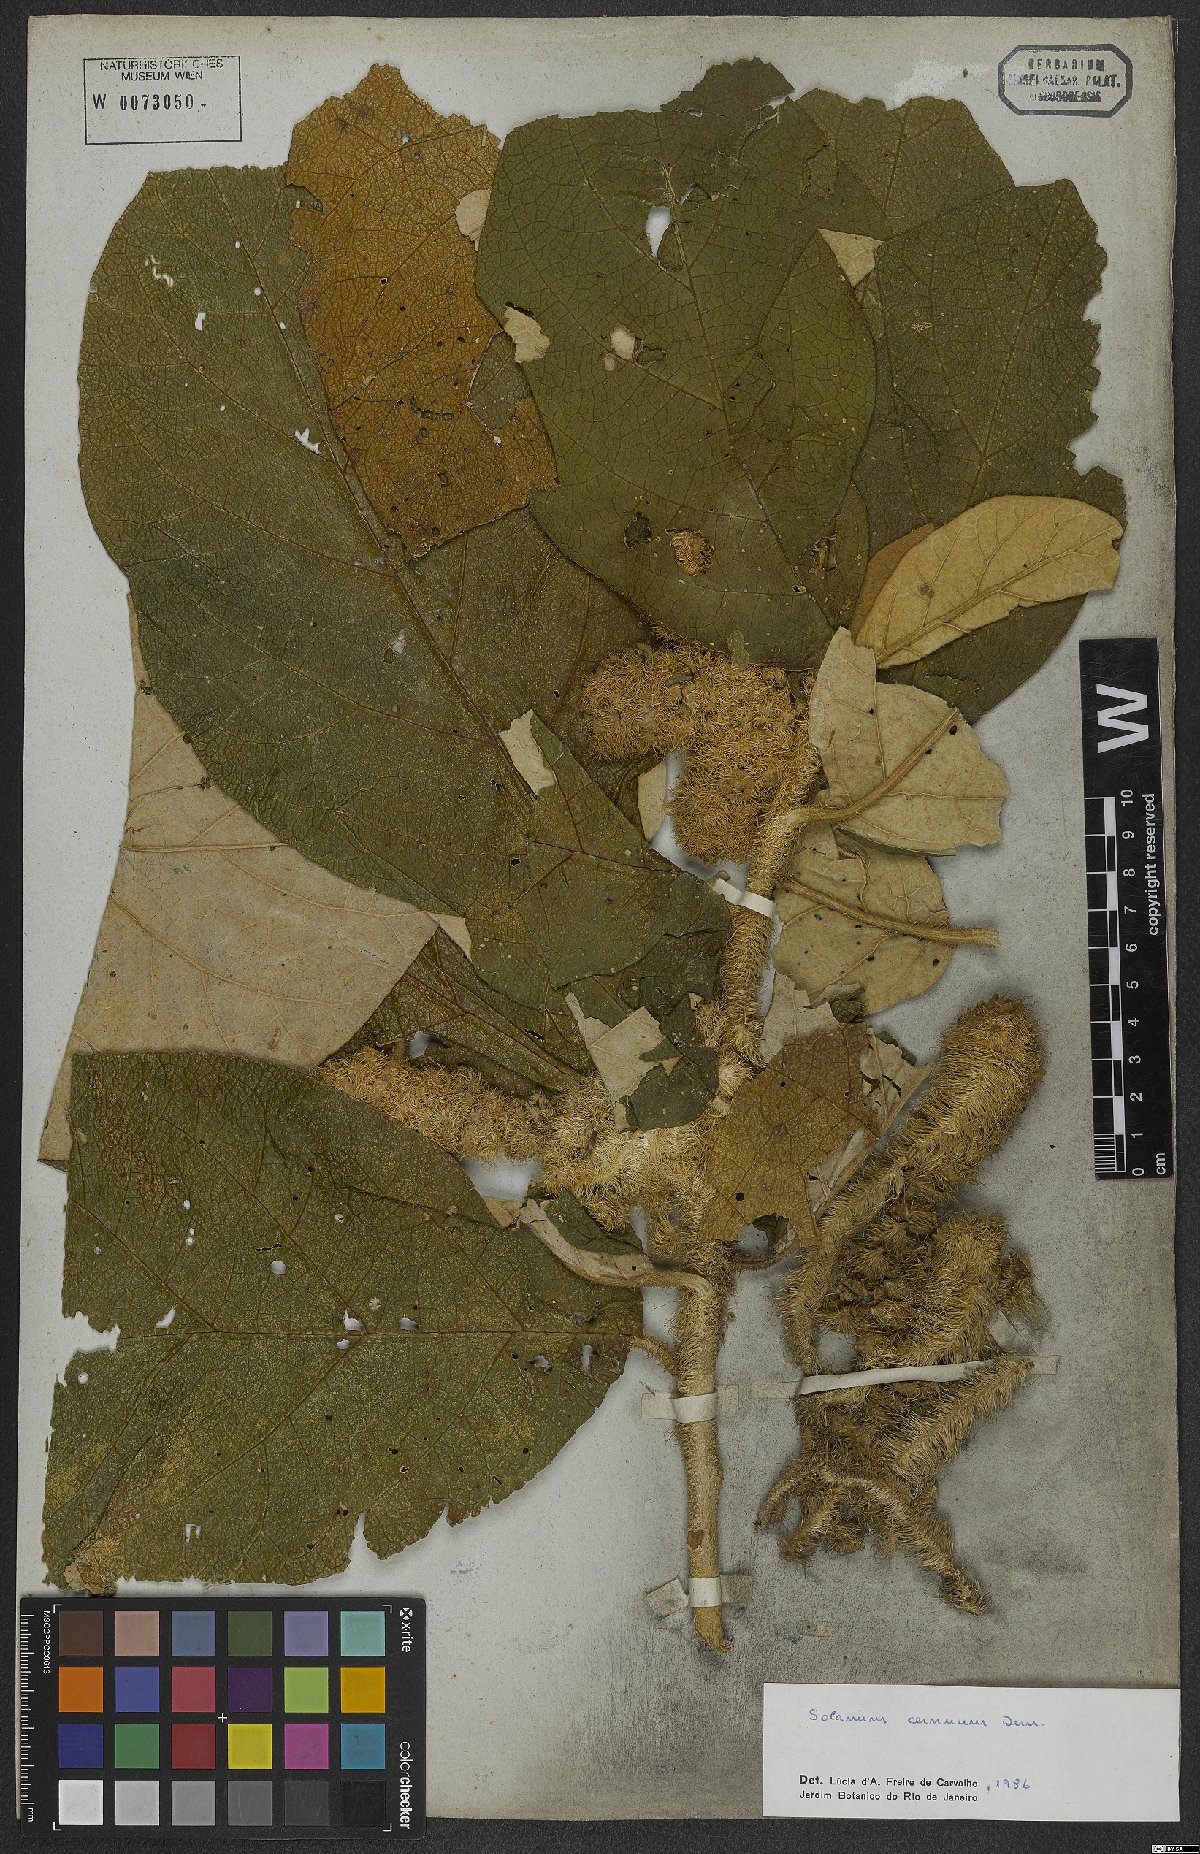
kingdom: Plantae
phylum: Tracheophyta
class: Magnoliopsida
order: Solanales
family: Solanaceae
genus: Solanum
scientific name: Solanum cernuum
